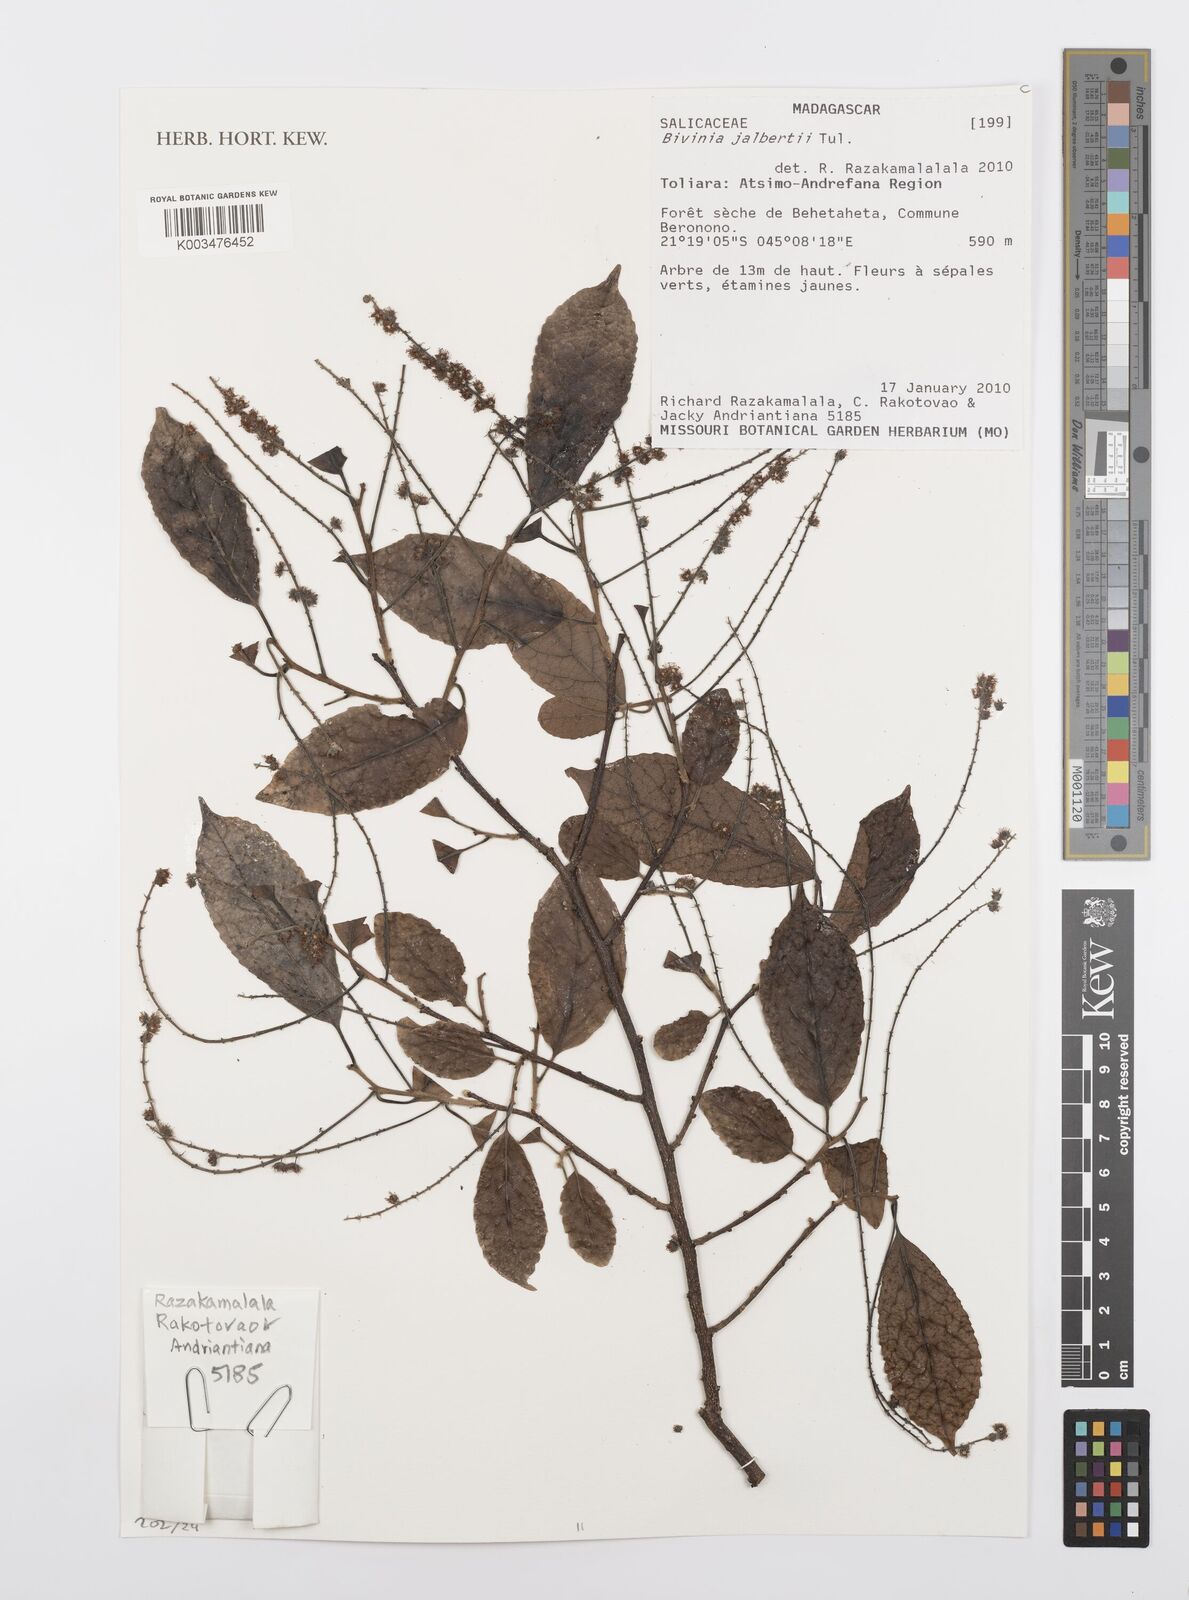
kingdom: Plantae
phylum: Tracheophyta
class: Magnoliopsida
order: Malpighiales
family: Salicaceae
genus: Bivinia
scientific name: Bivinia jalbertii
